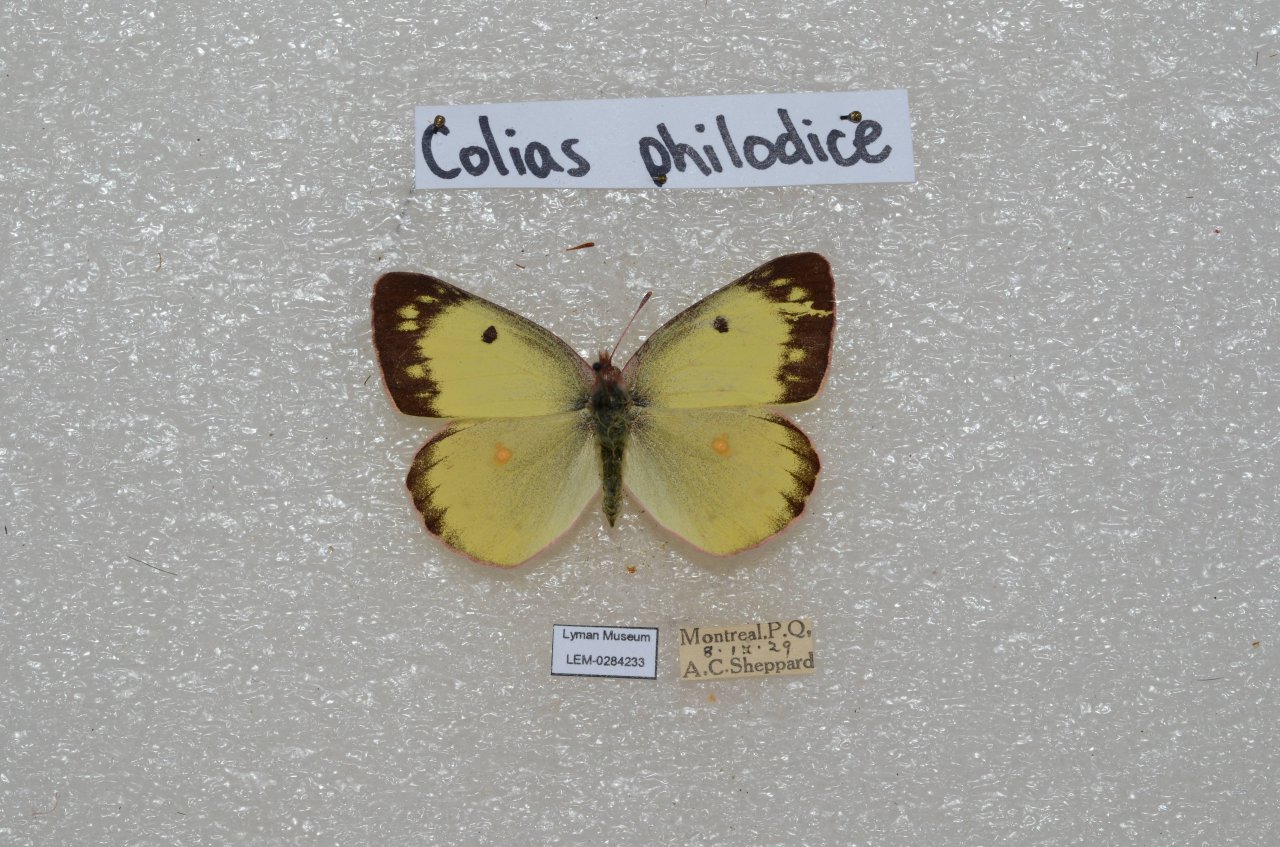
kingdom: Animalia
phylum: Arthropoda
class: Insecta
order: Lepidoptera
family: Pieridae
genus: Colias
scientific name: Colias philodice
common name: Clouded Sulphur
